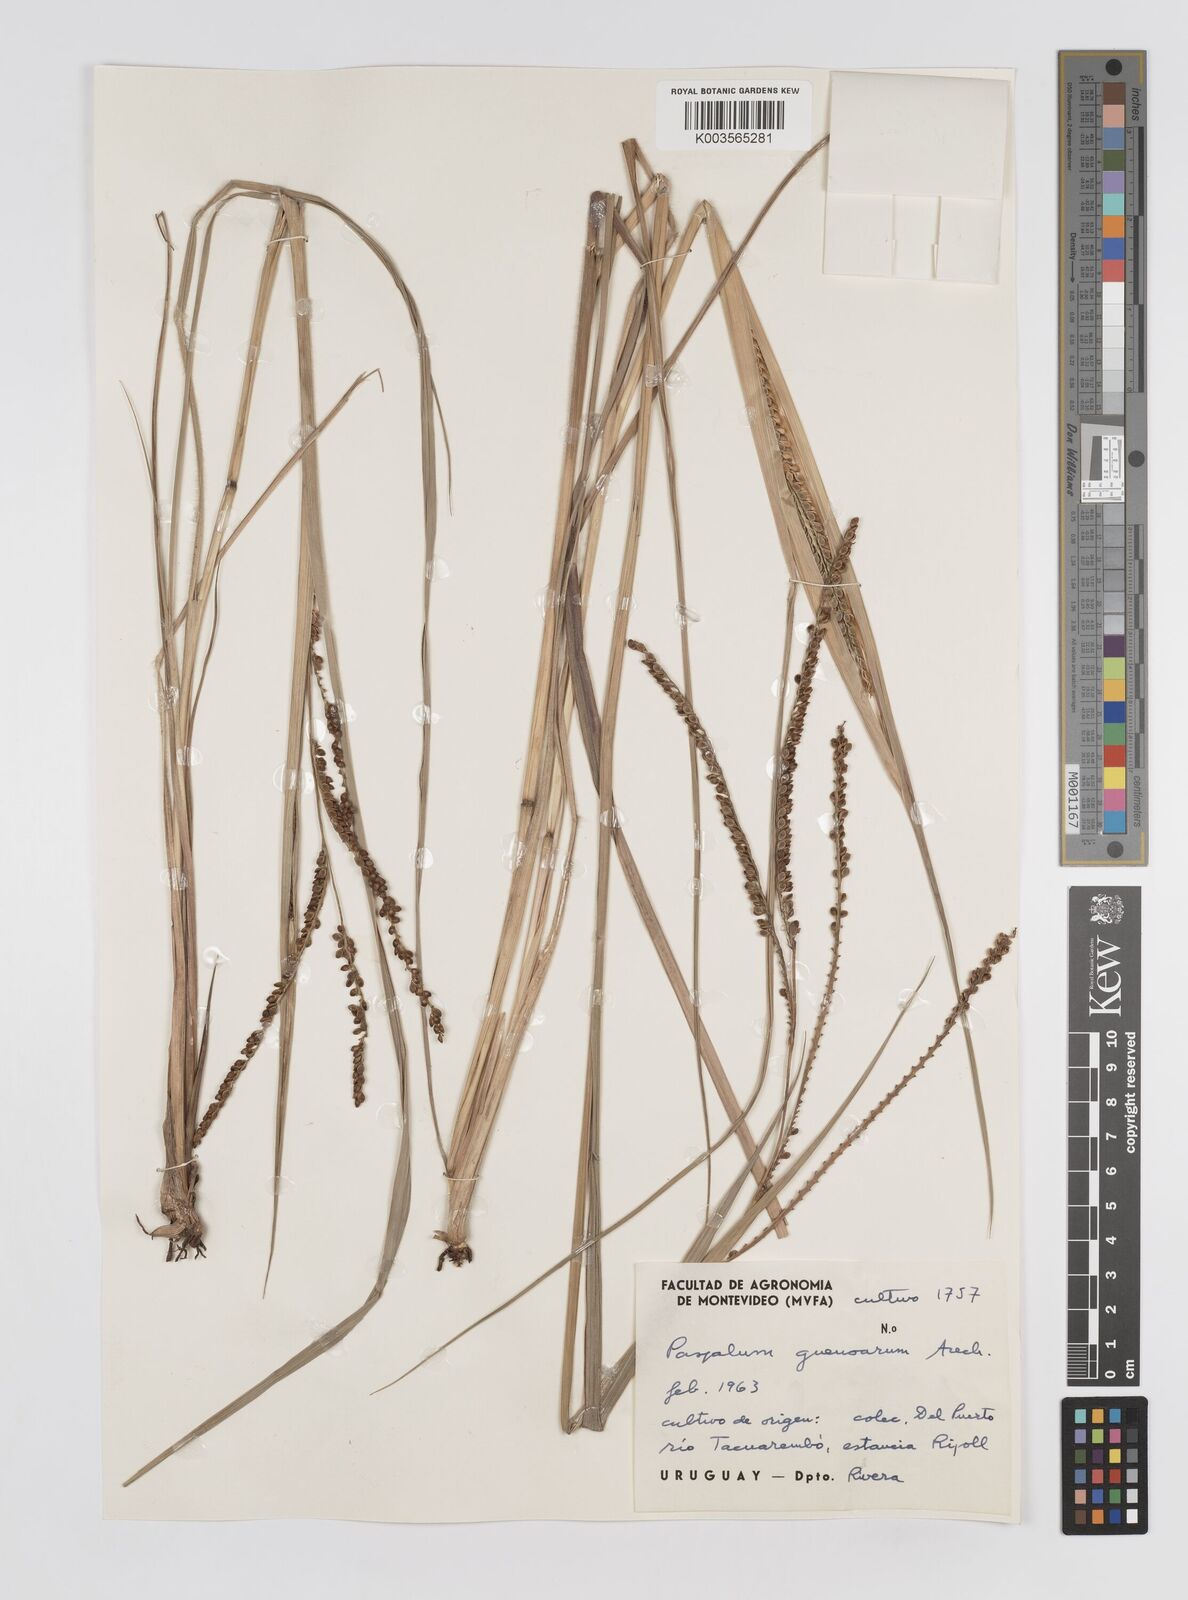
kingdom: Plantae
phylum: Tracheophyta
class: Liliopsida
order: Poales
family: Poaceae
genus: Paspalum
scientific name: Paspalum guenoarum
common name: Wintergreen paspalum
